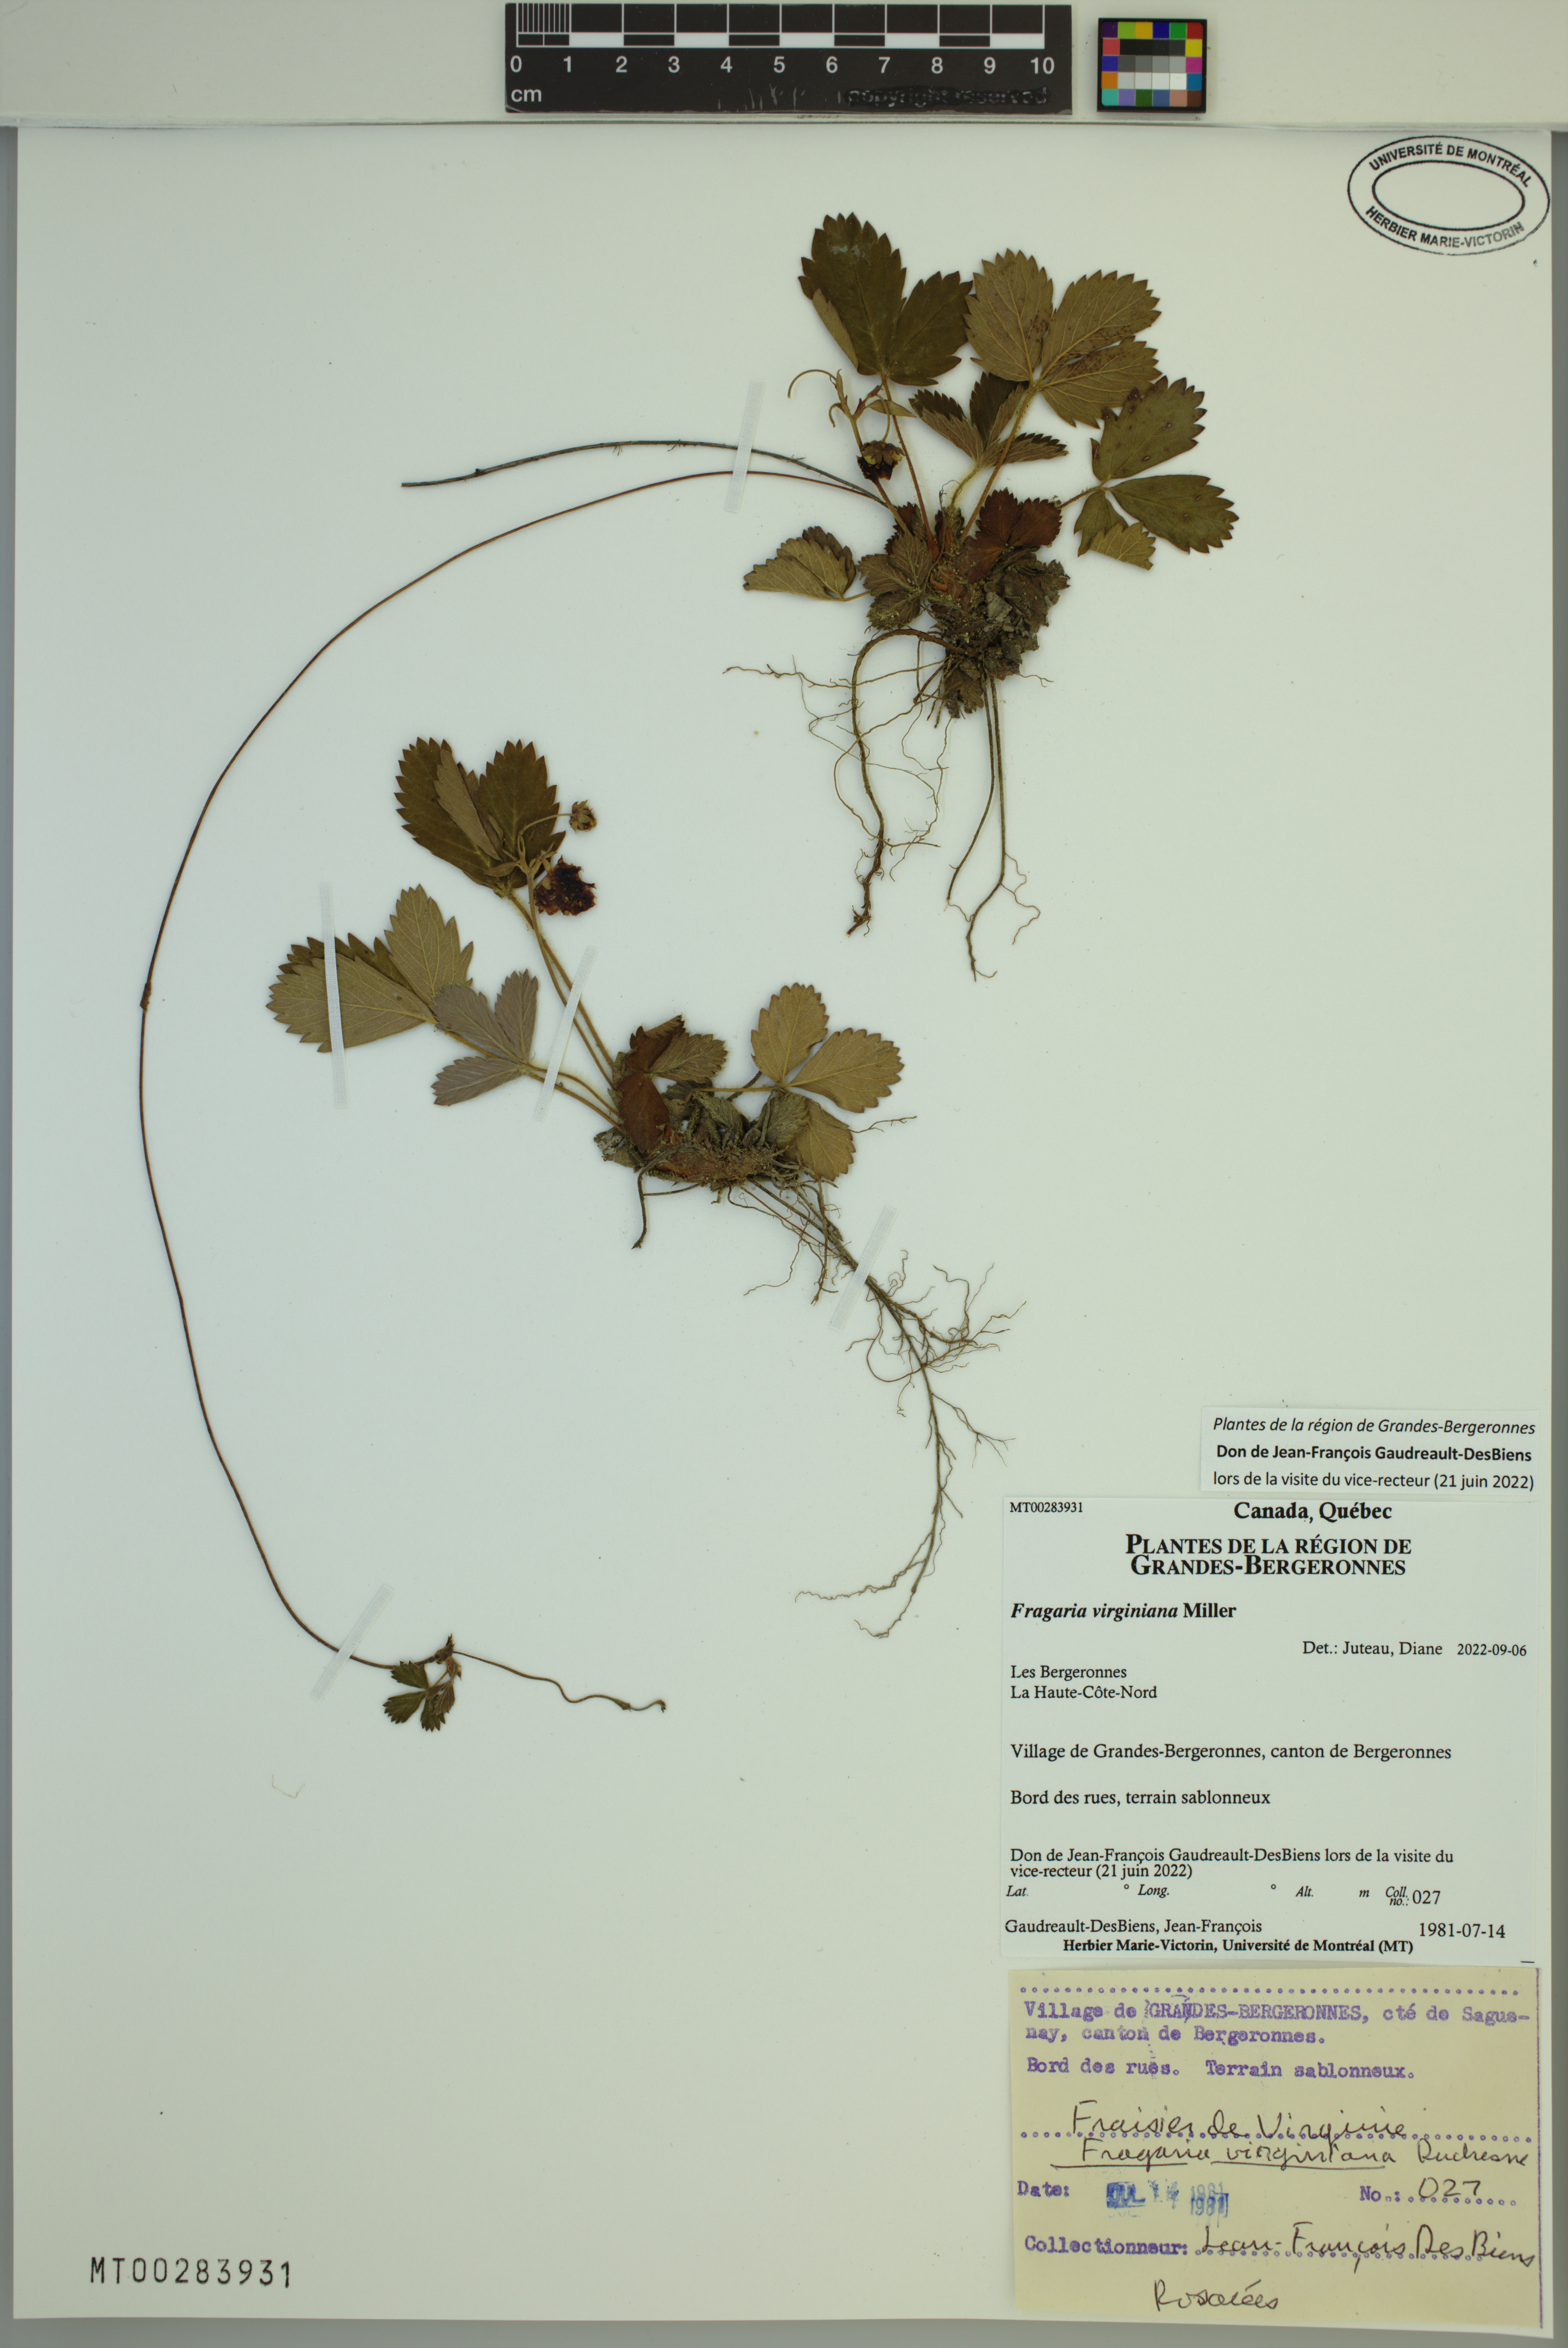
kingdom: Plantae
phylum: Tracheophyta
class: Magnoliopsida
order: Rosales
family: Rosaceae
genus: Fragaria
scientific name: Fragaria virginiana
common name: Thickleaved wild strawberry
